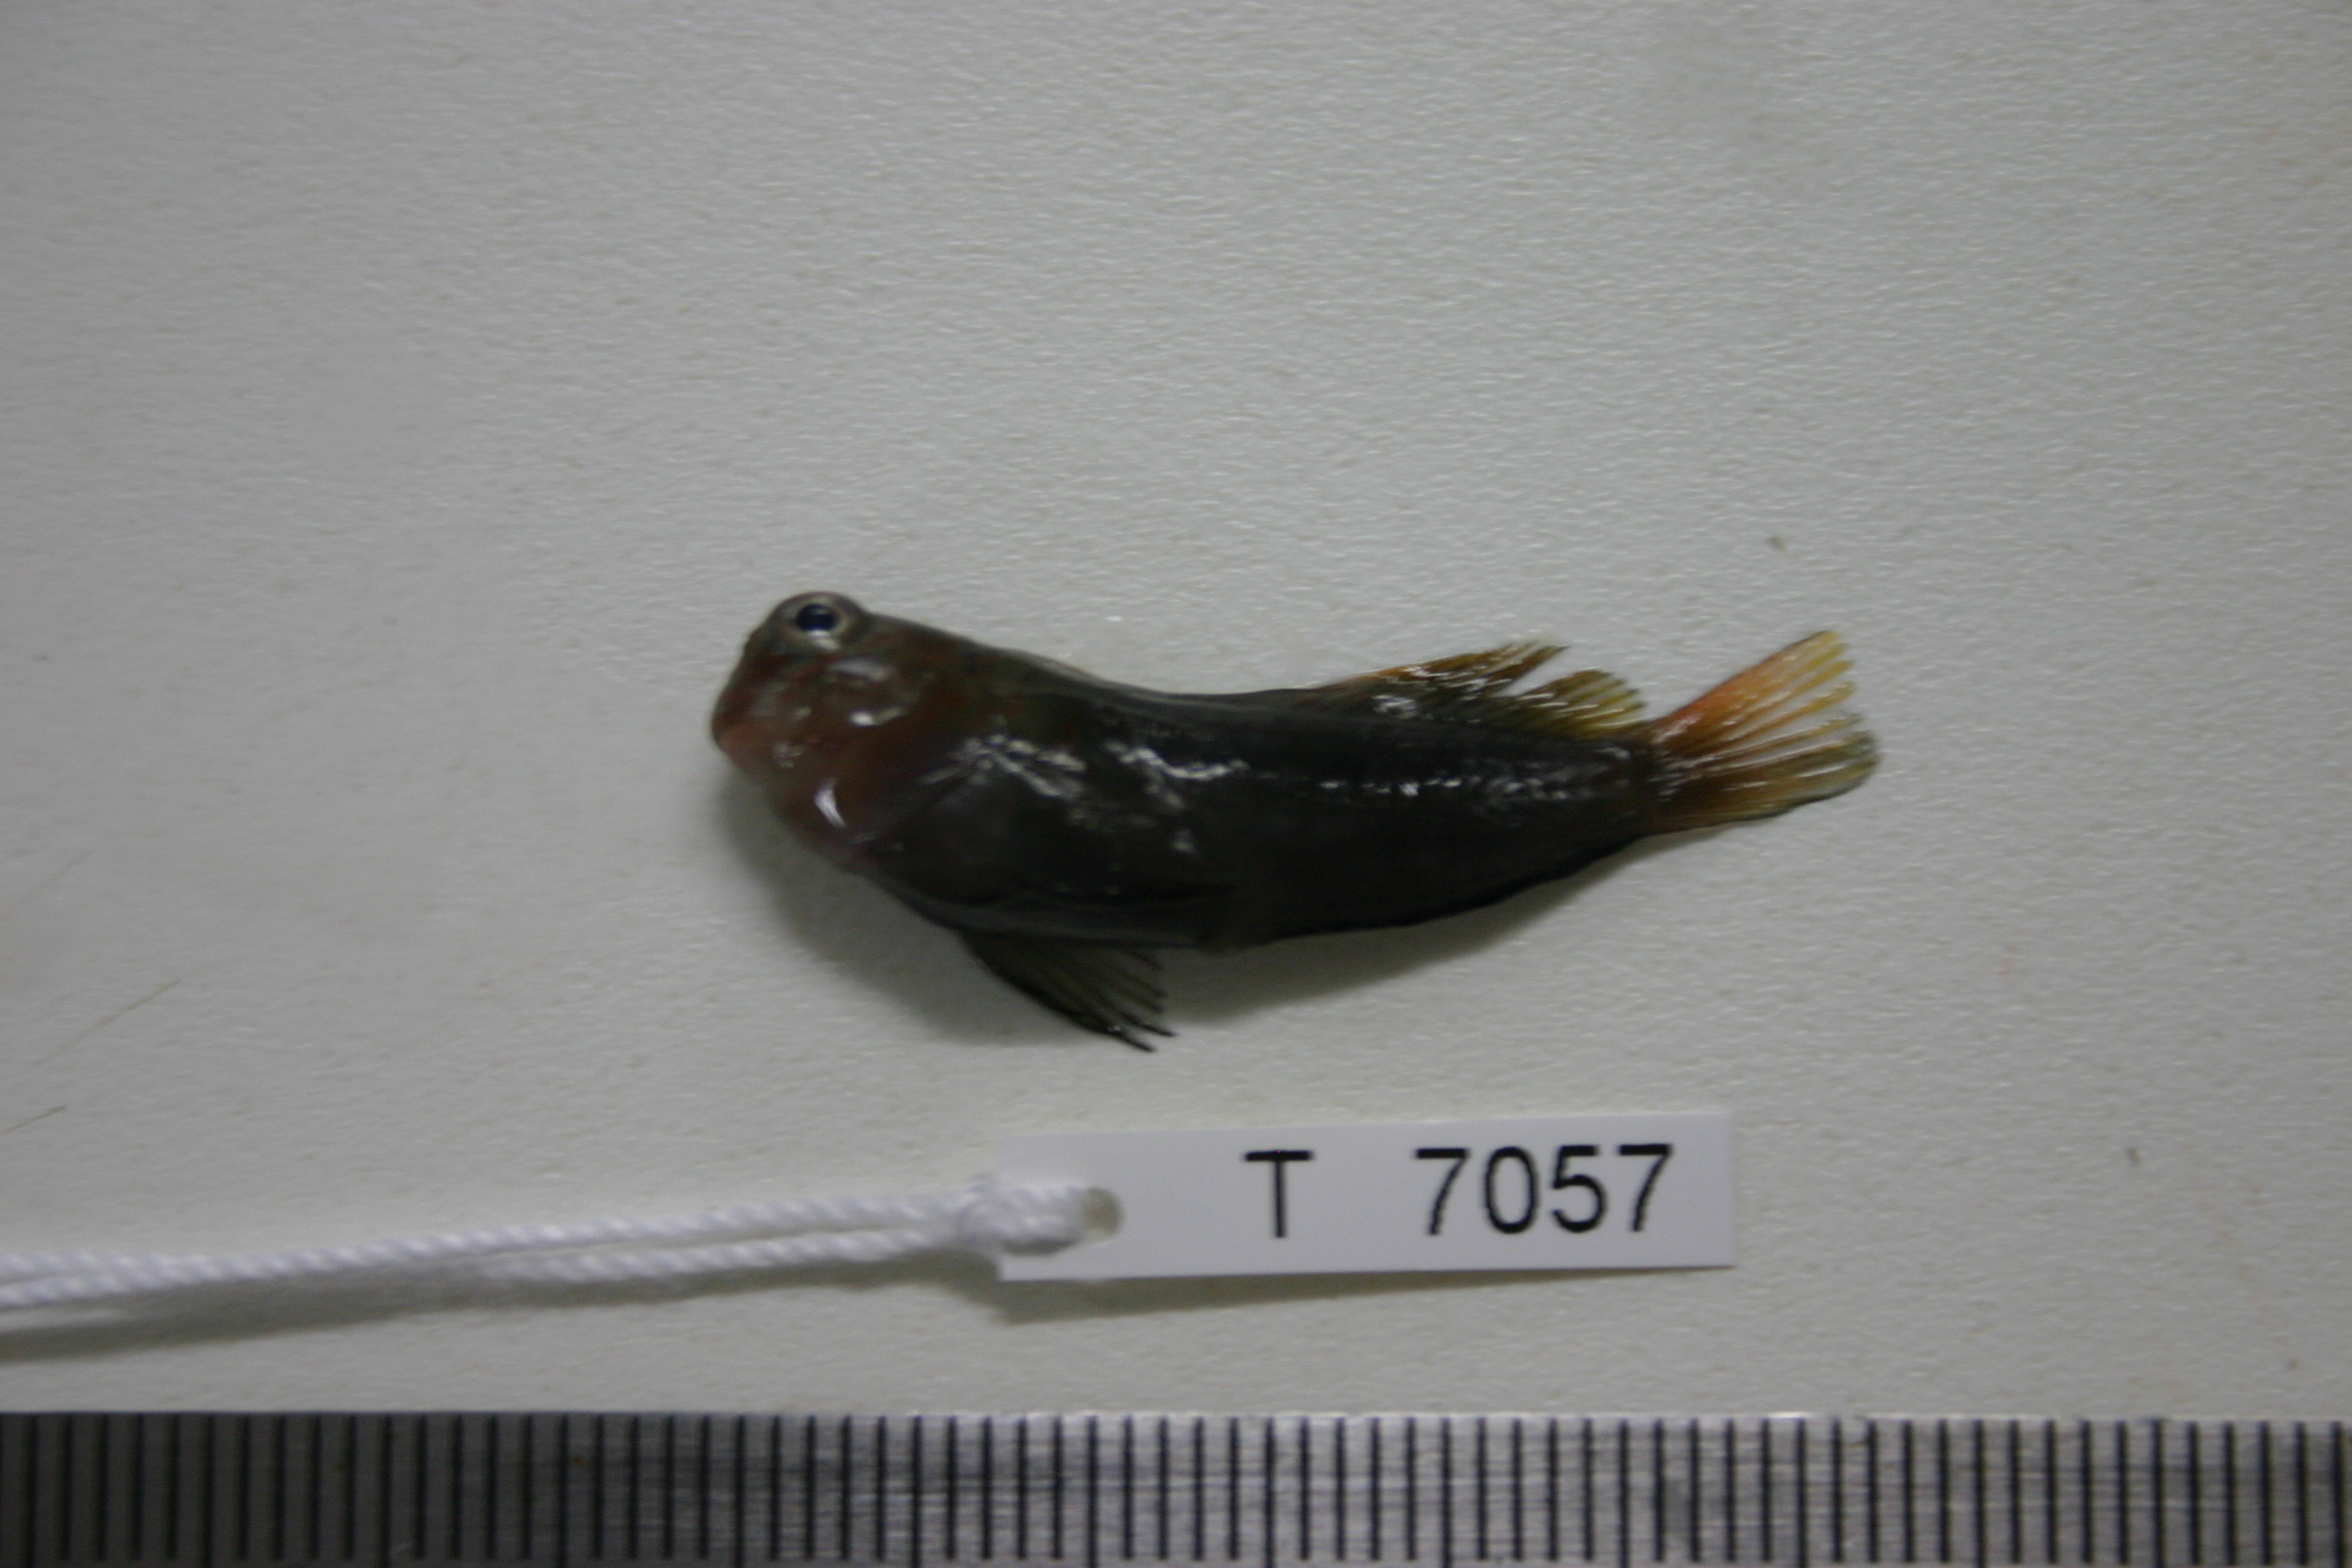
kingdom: Animalia
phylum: Chordata
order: Perciformes
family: Blenniidae
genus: Cirripectes
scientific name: Cirripectes castaneus
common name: Chestnut blenny
